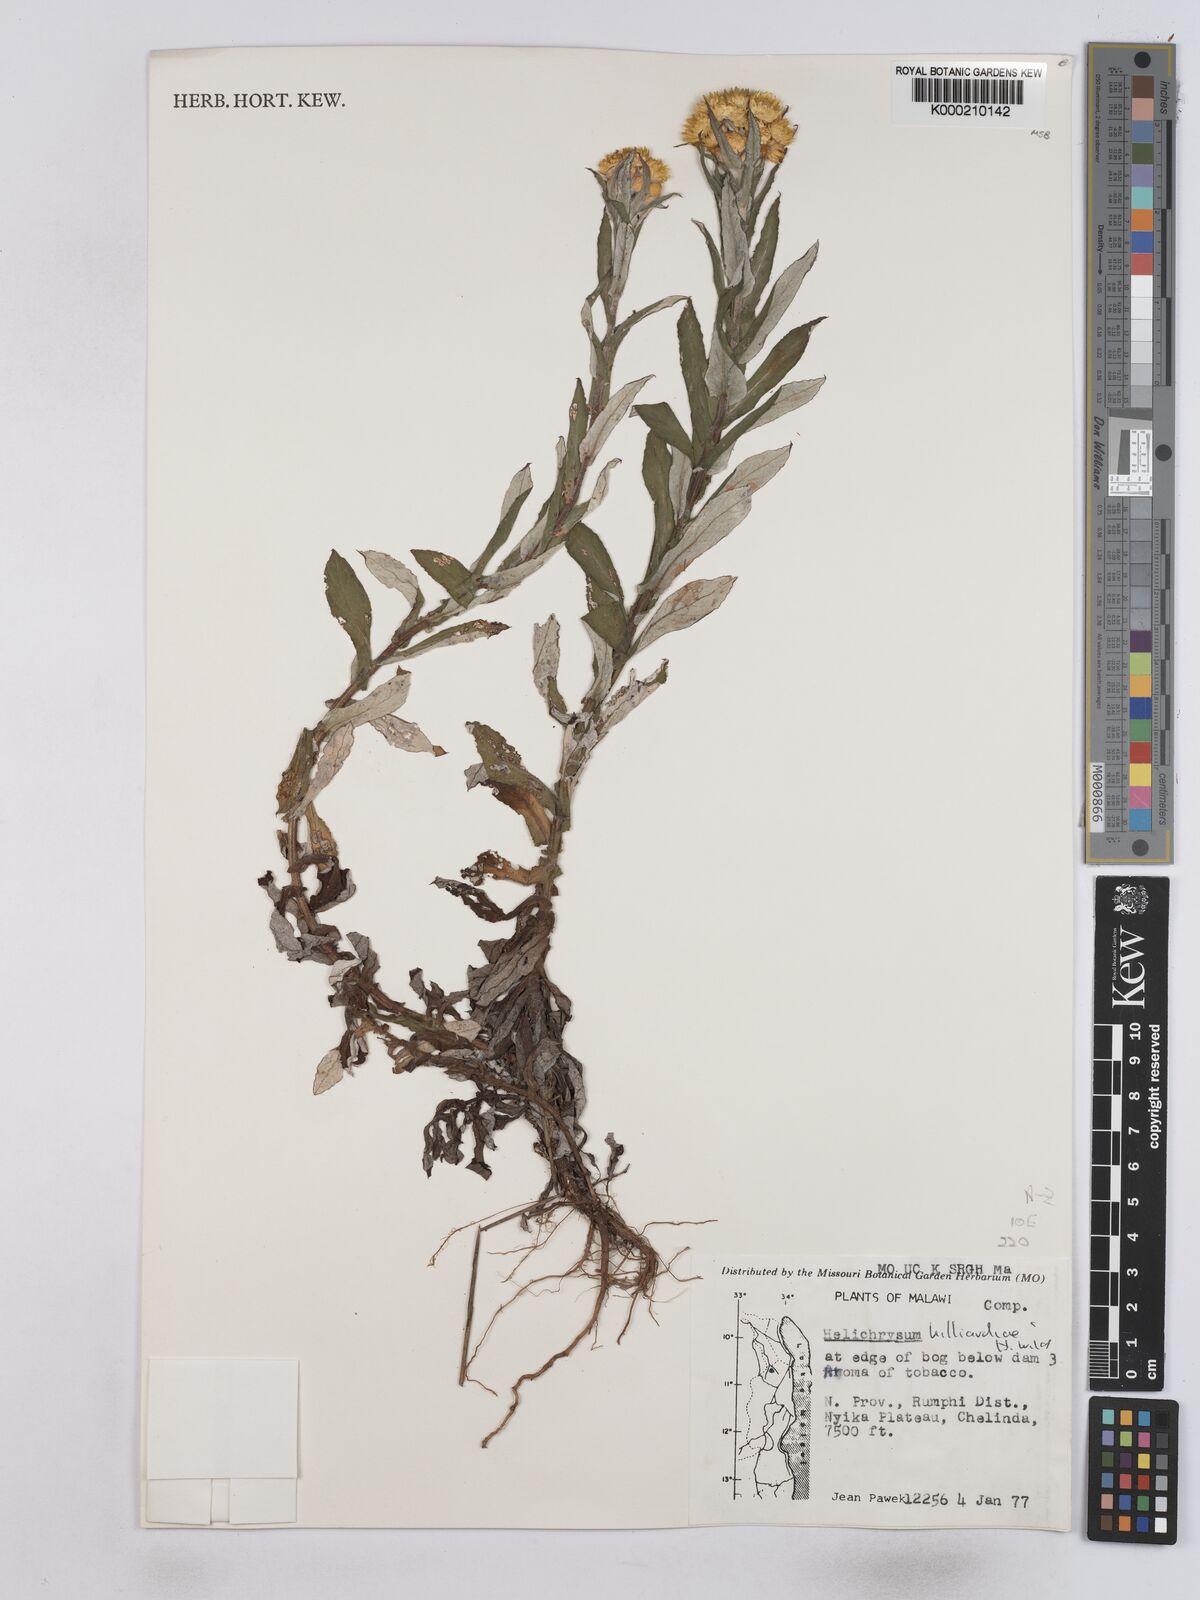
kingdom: Plantae
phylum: Tracheophyta
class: Magnoliopsida
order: Asterales
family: Asteraceae
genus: Helichrysum
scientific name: Helichrysum hilliardiae
